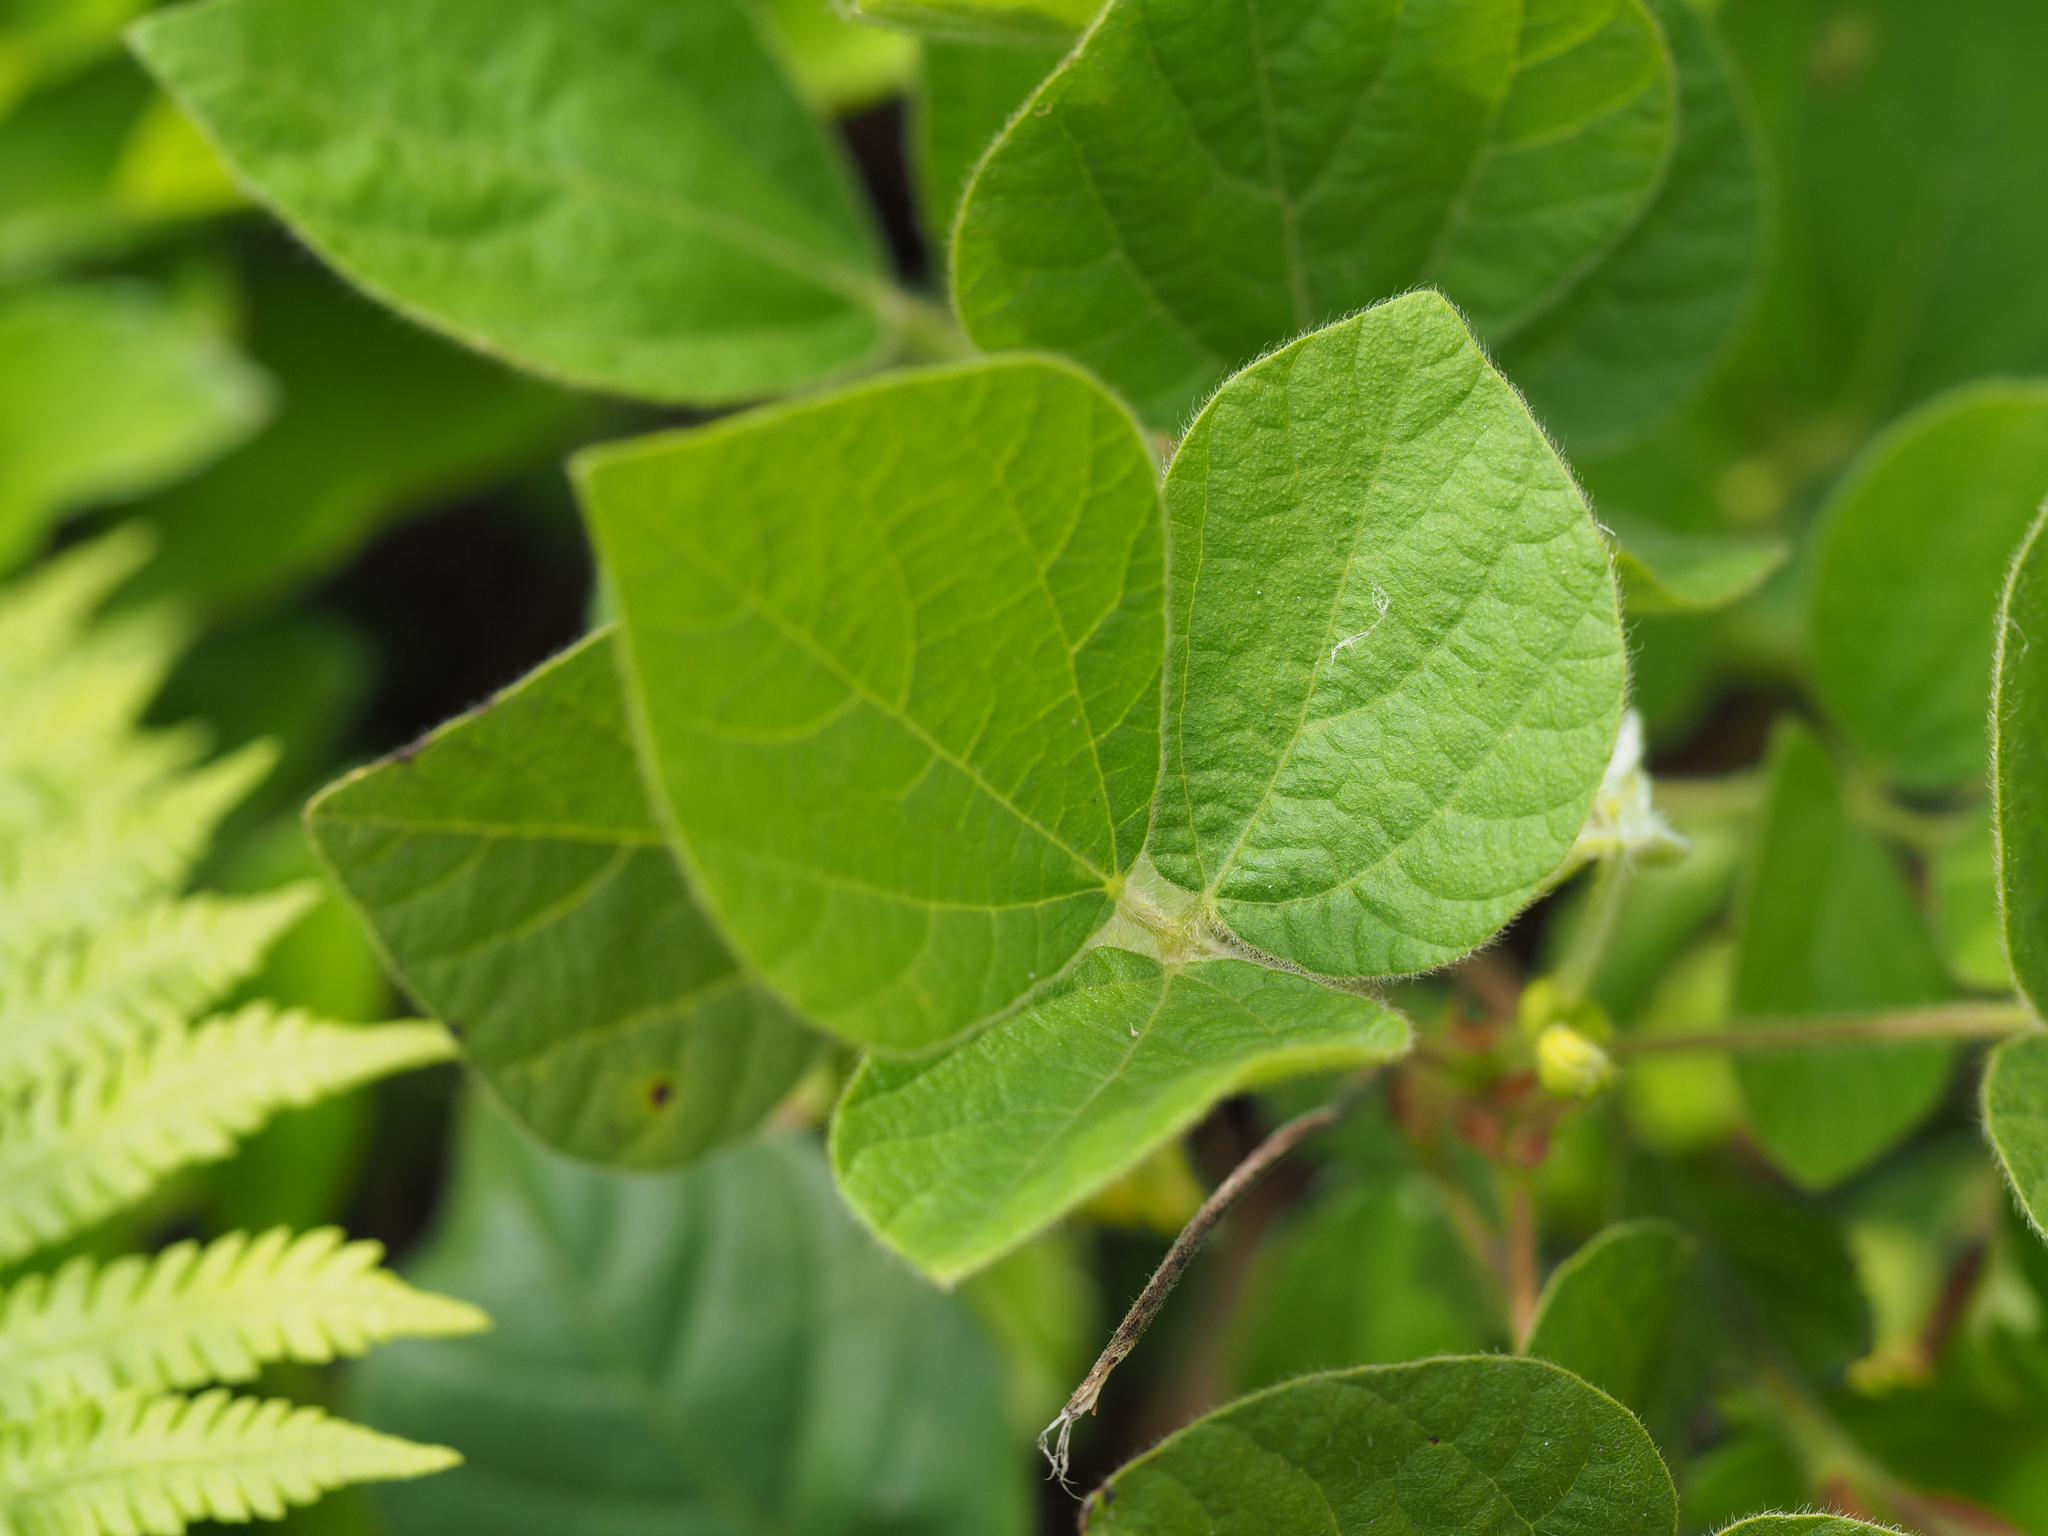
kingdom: Plantae
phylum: Tracheophyta
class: Magnoliopsida
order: Fabales
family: Fabaceae
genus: Rhynchosia
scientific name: Rhynchosia volubilis
